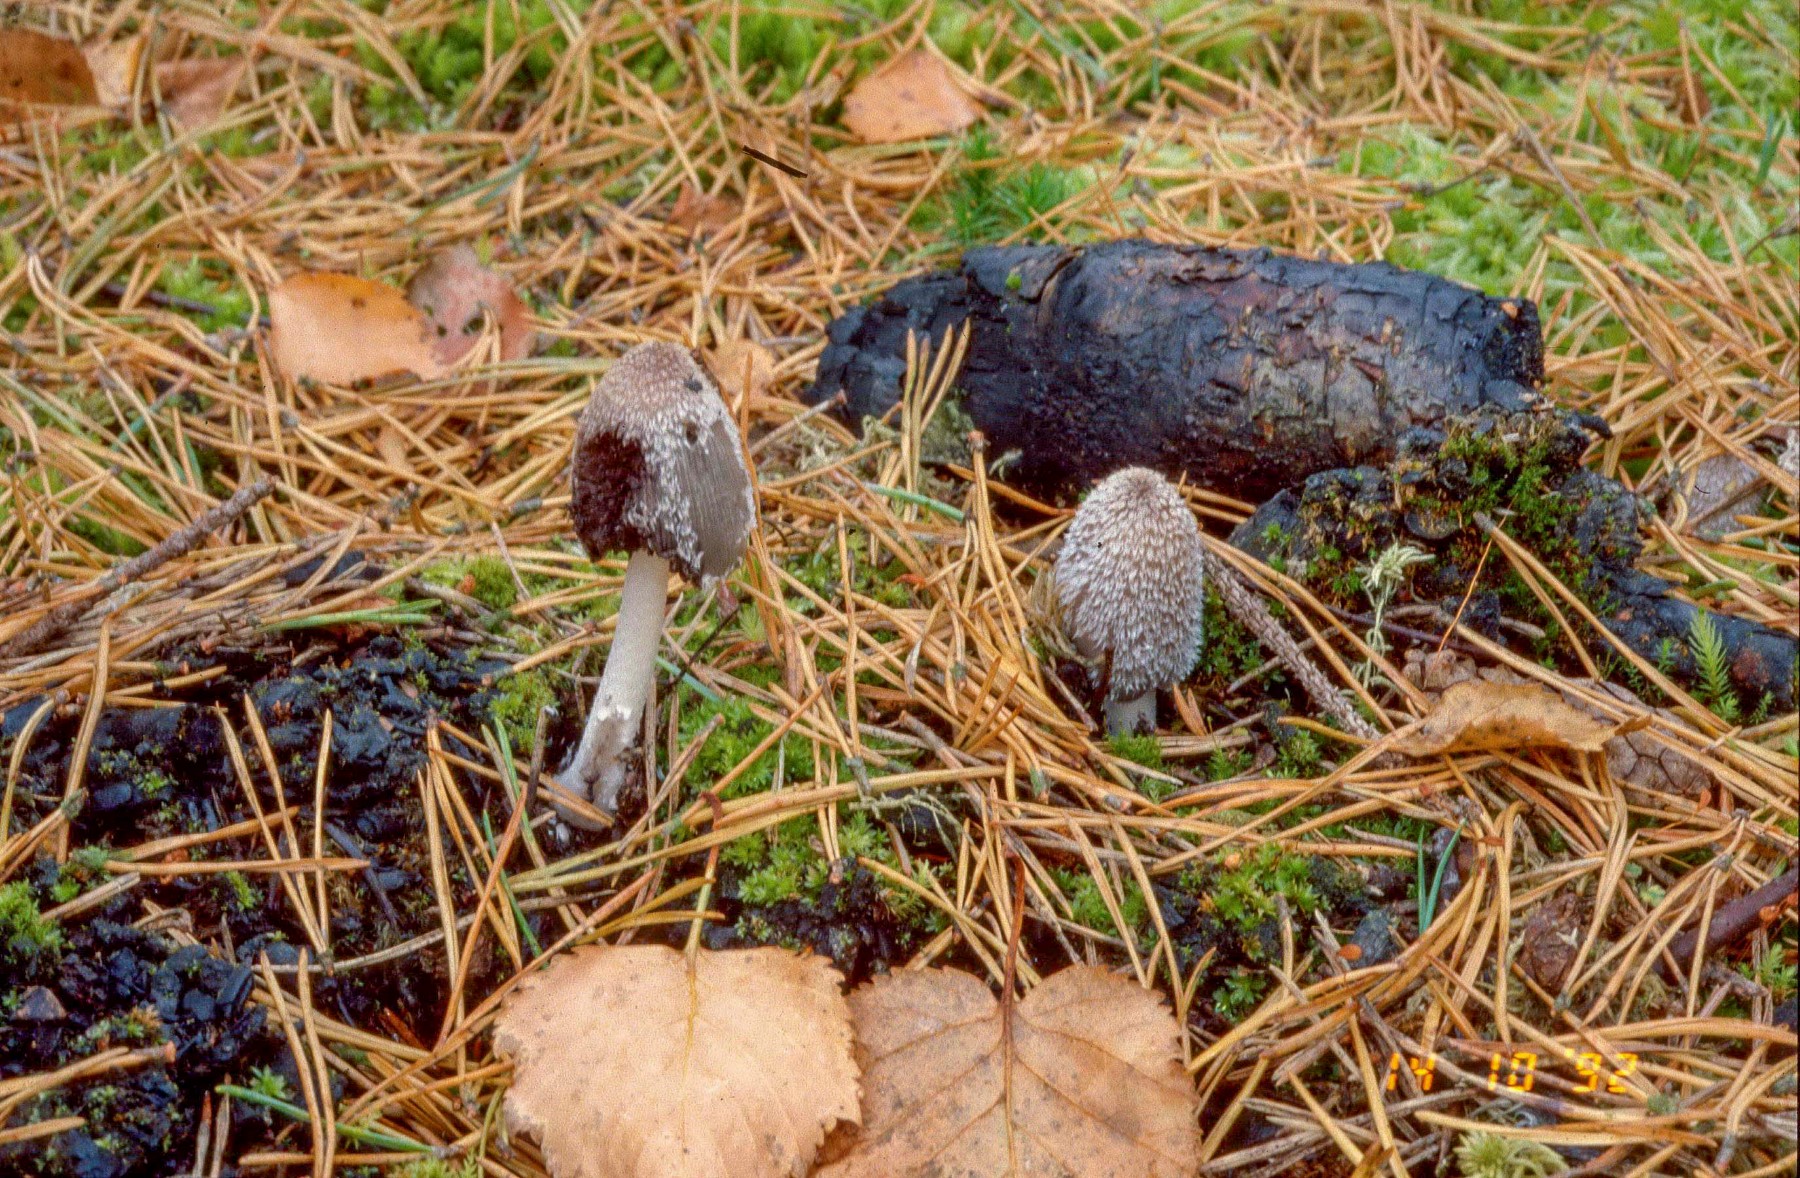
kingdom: Fungi
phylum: Basidiomycota
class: Agaricomycetes
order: Agaricales
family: Psathyrellaceae
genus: Coprinopsis
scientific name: Coprinopsis jonesii
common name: spættet blækhat
